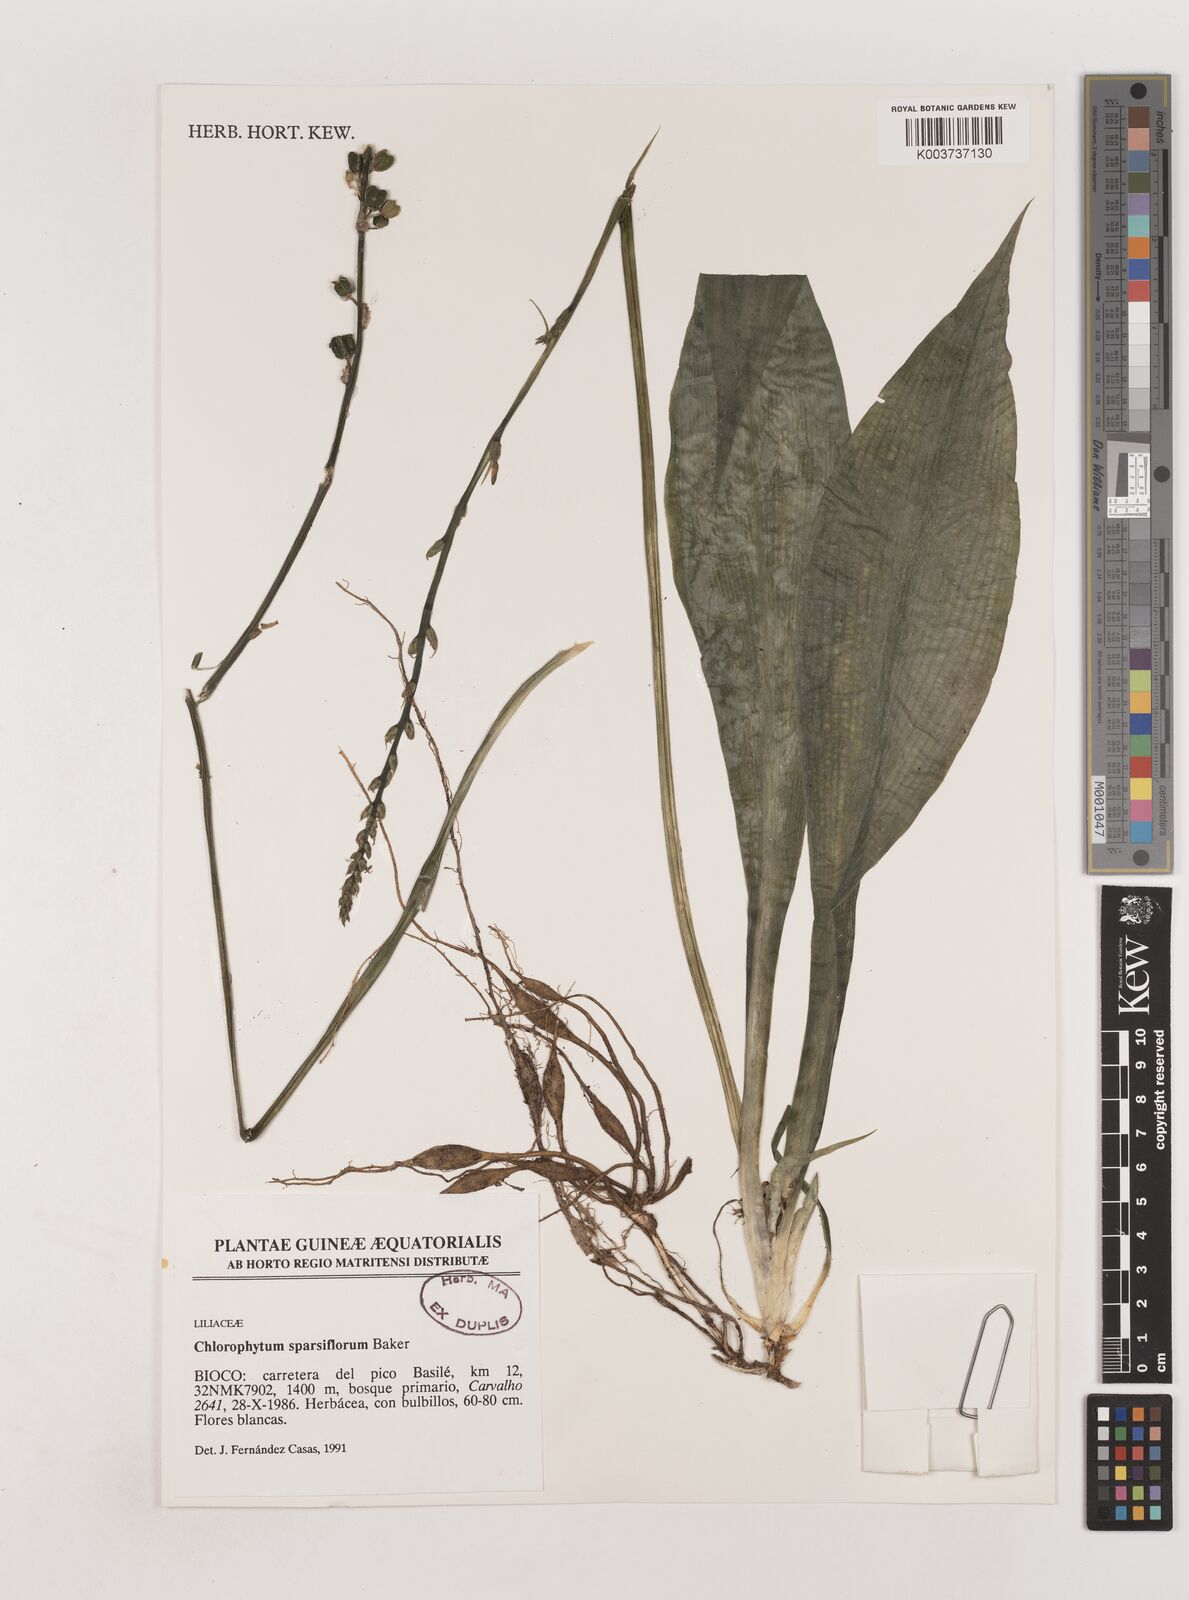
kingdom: Plantae
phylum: Tracheophyta
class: Liliopsida
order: Asparagales
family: Asparagaceae
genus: Chlorophytum
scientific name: Chlorophytum sparsiflorum
